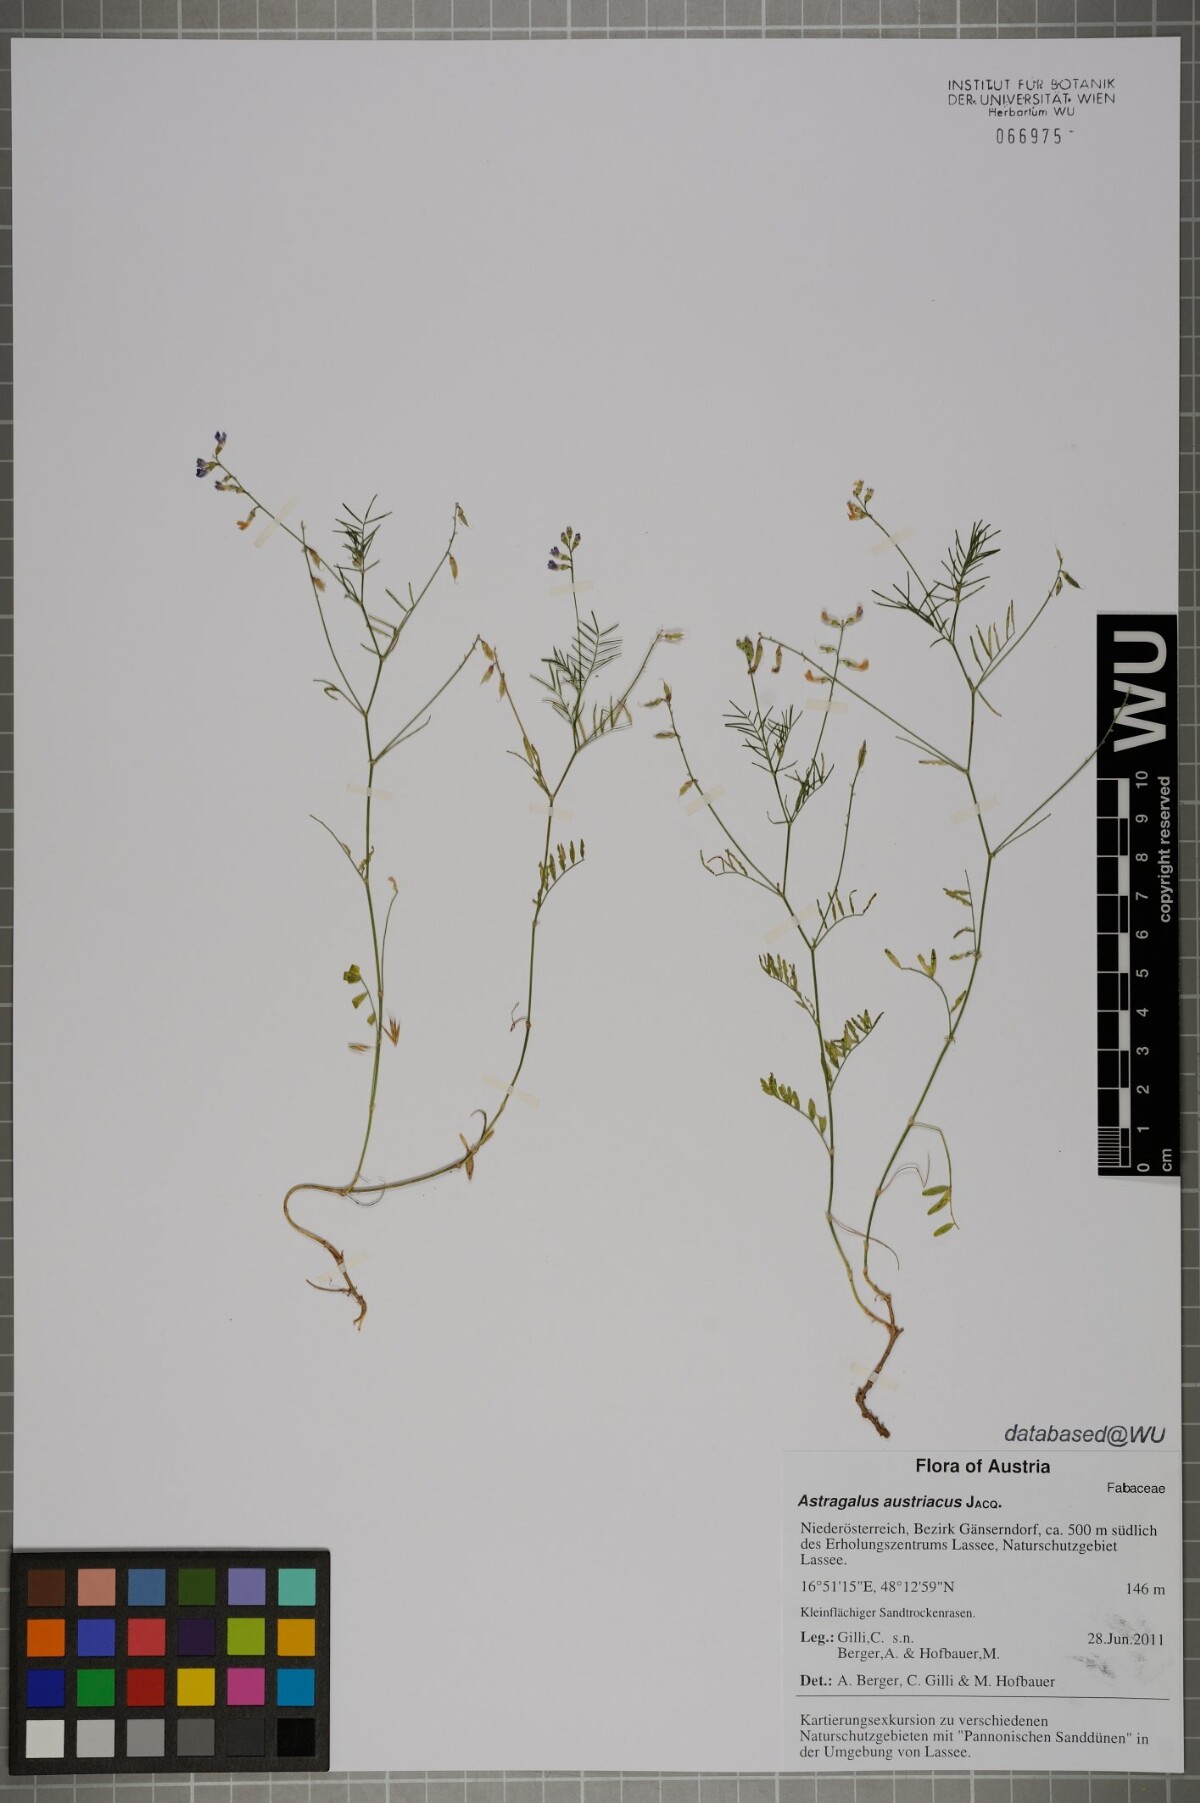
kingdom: Plantae
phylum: Tracheophyta
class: Magnoliopsida
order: Fabales
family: Fabaceae
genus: Astragalus
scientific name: Astragalus austriacus
